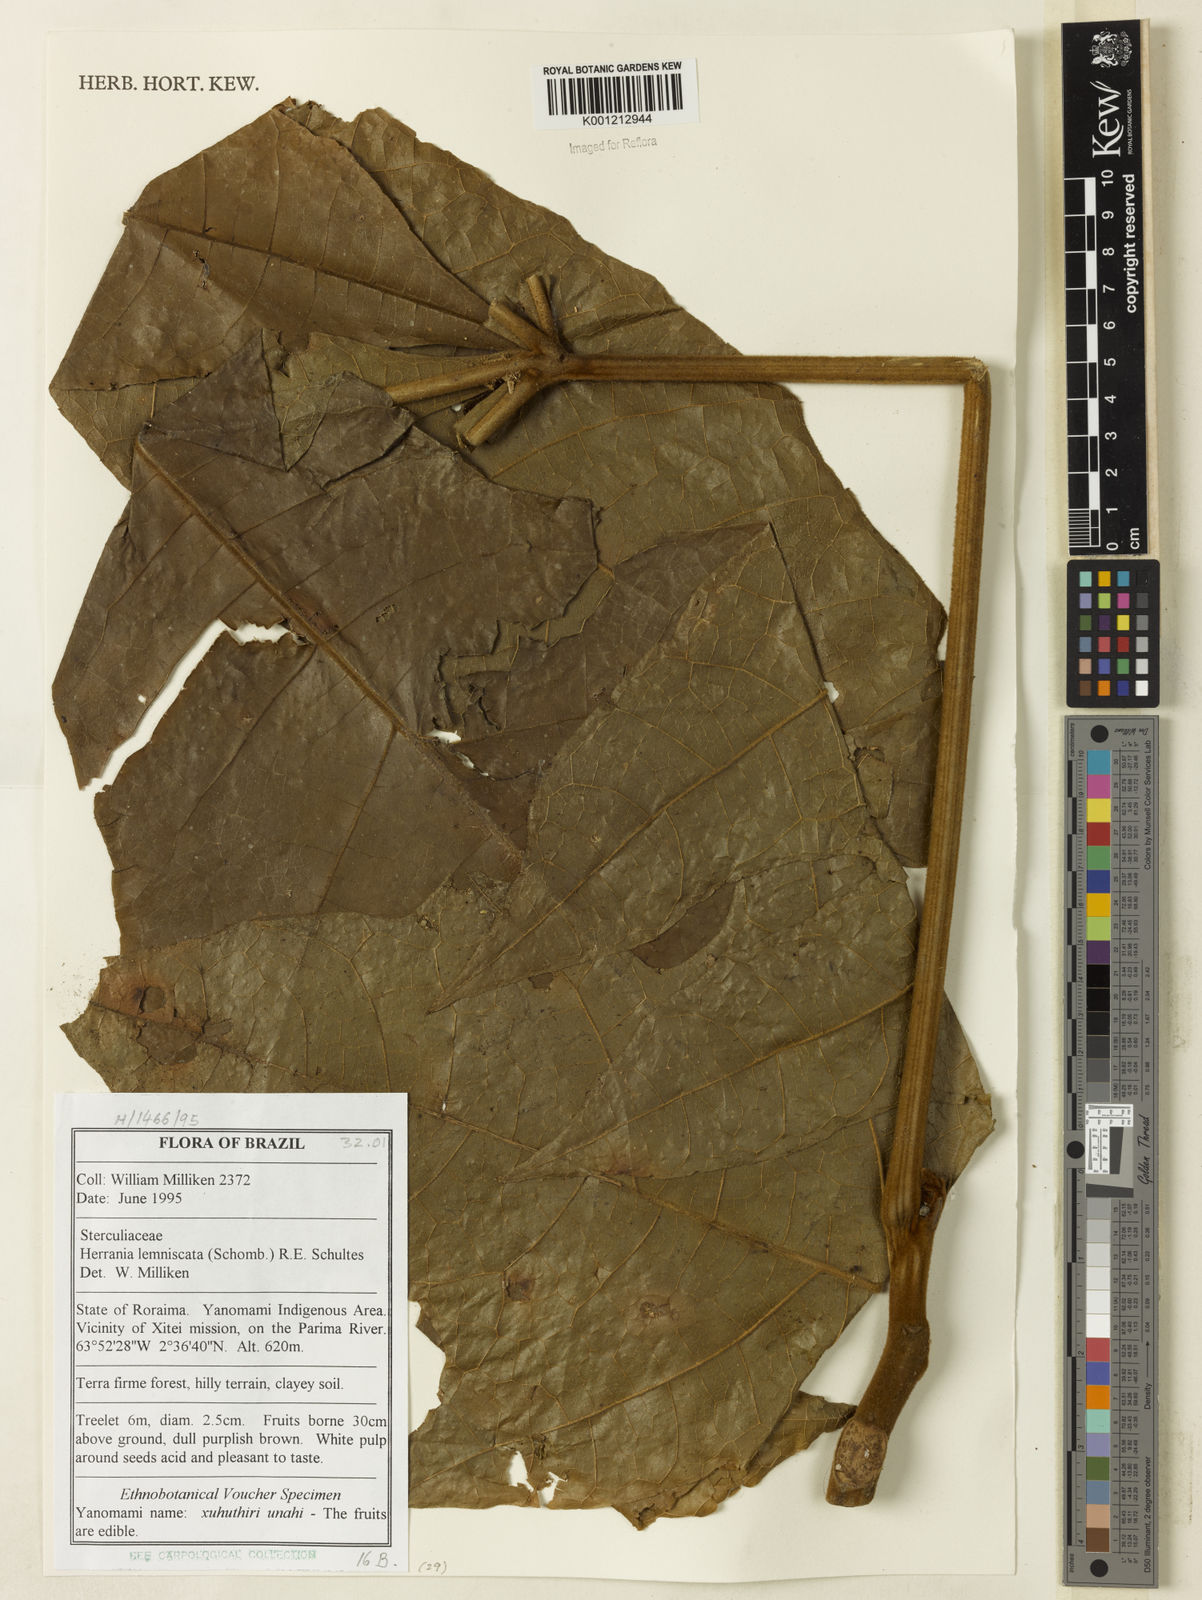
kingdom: Plantae
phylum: Tracheophyta
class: Magnoliopsida
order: Malvales
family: Malvaceae
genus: Herrania
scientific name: Herrania mariae
